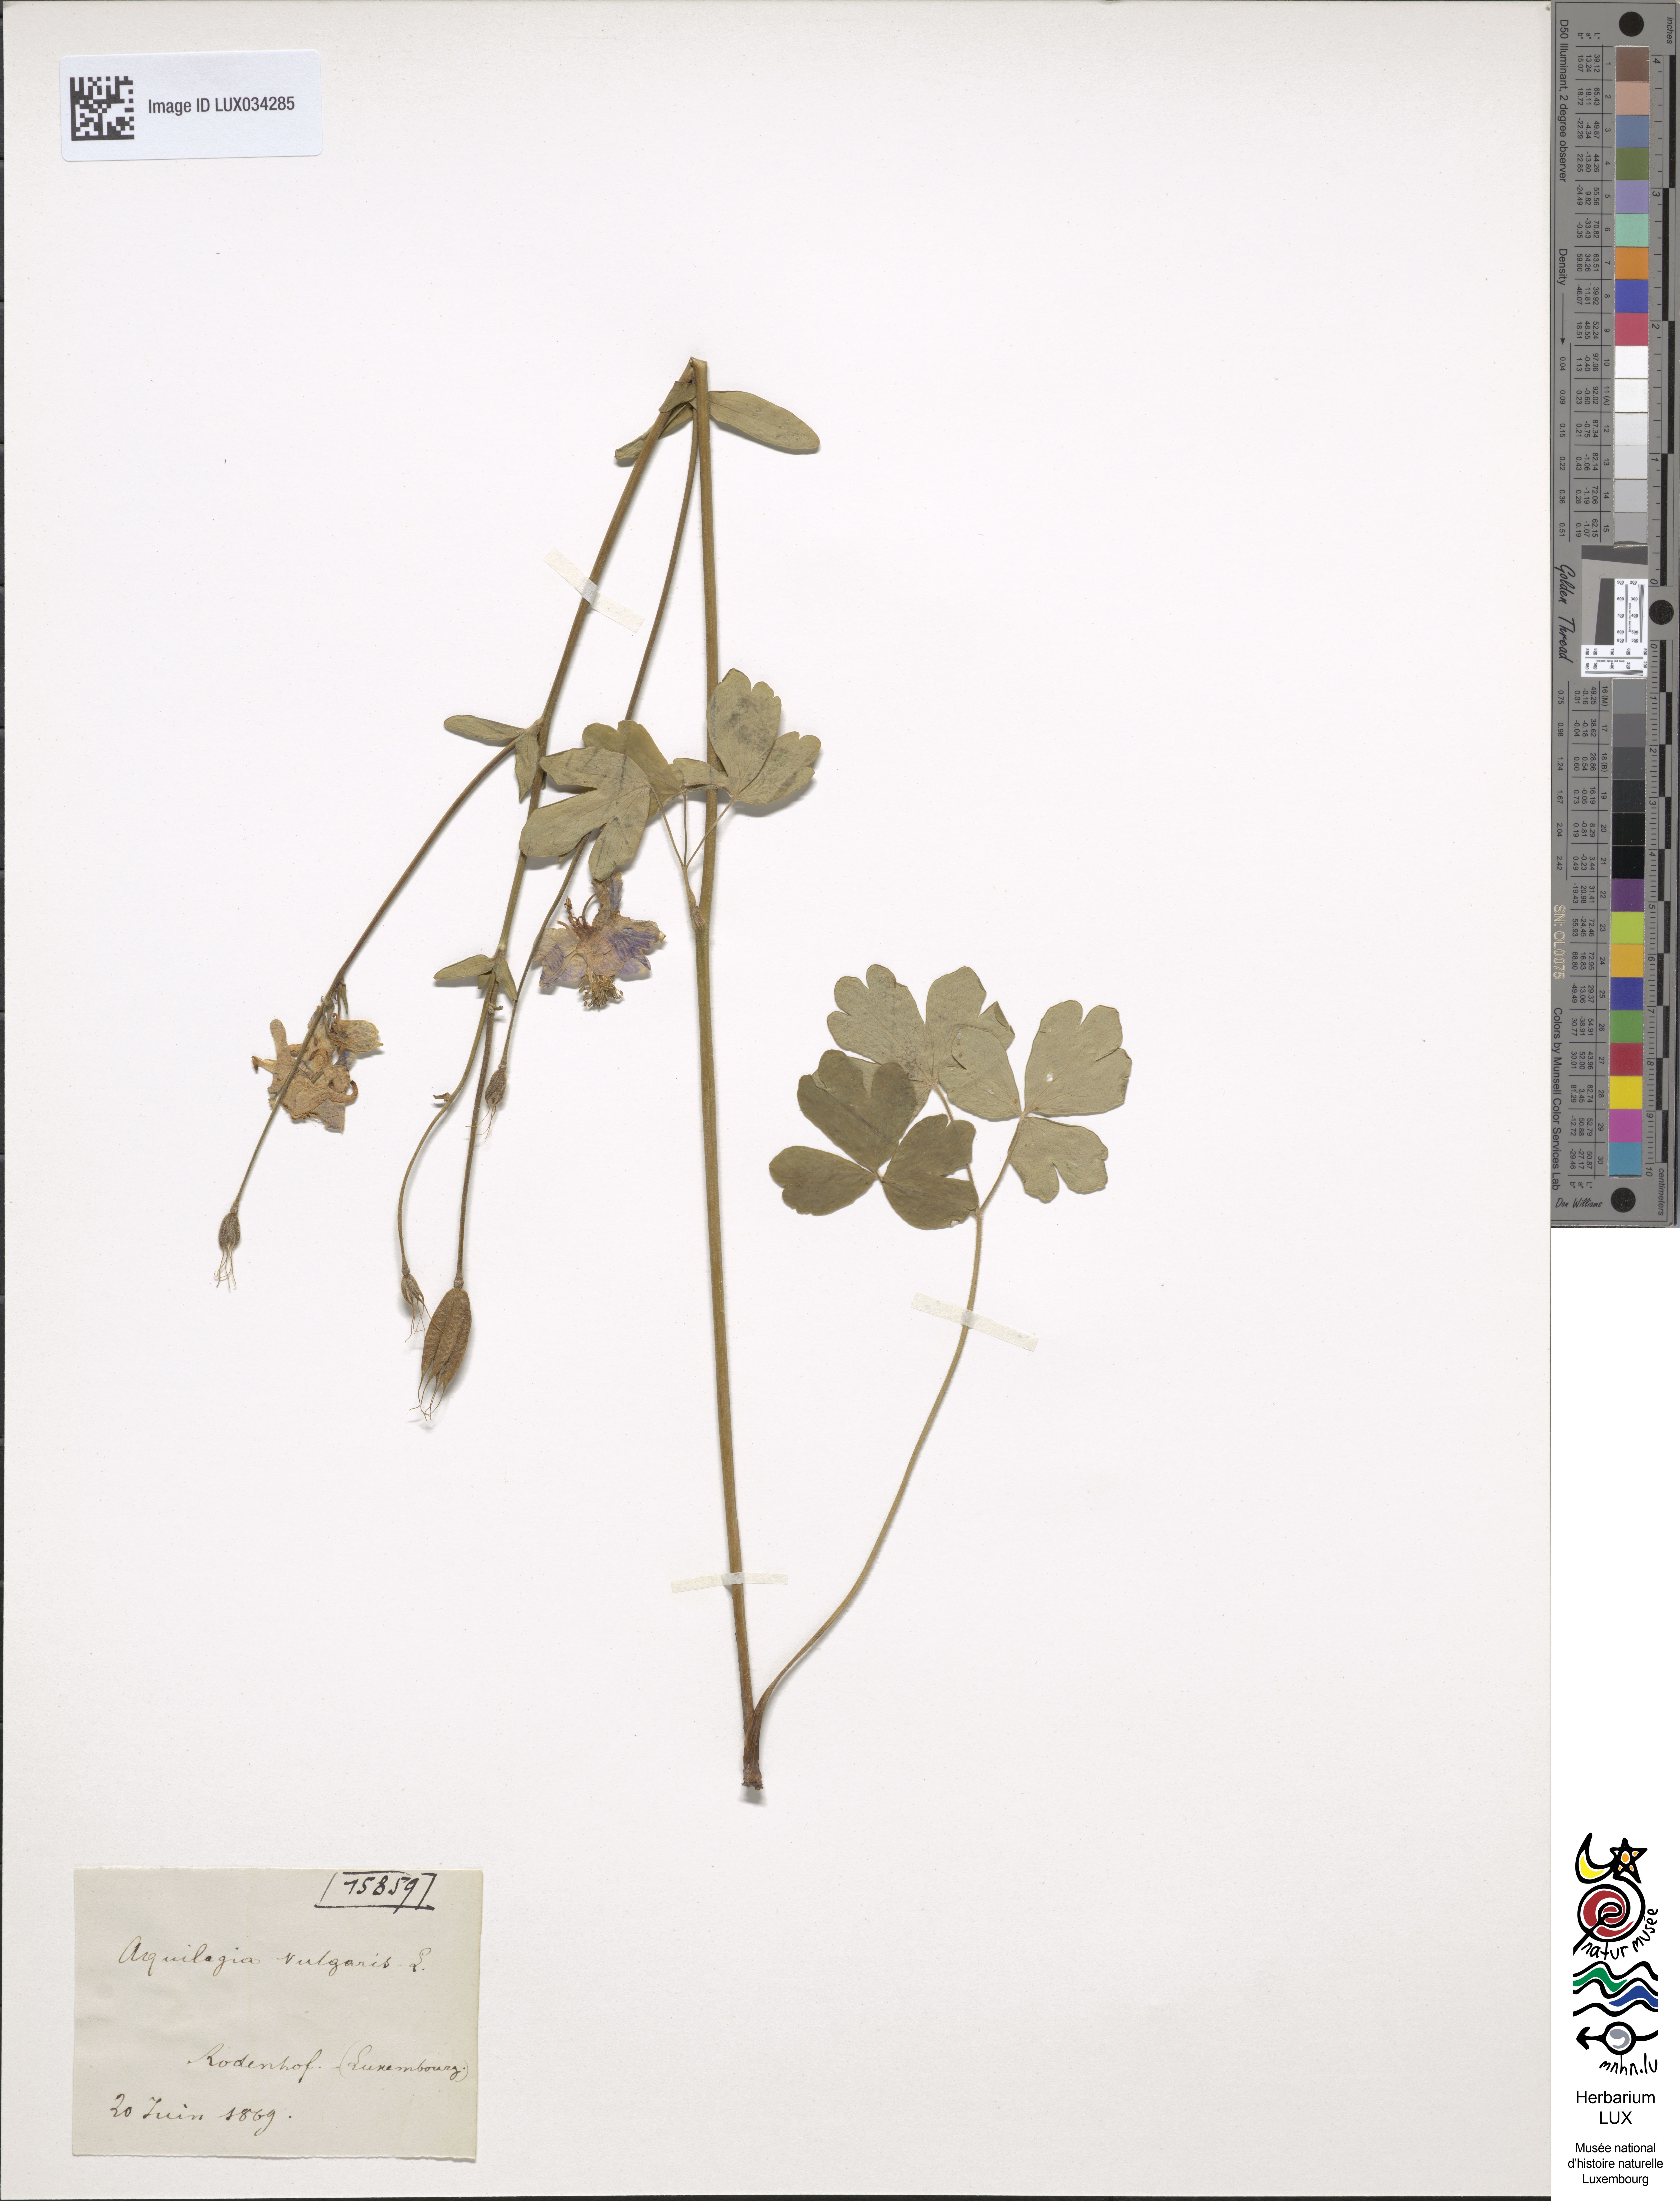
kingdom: Plantae
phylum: Tracheophyta
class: Magnoliopsida
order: Ranunculales
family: Ranunculaceae
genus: Aquilegia
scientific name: Aquilegia vulgaris
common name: Columbine
